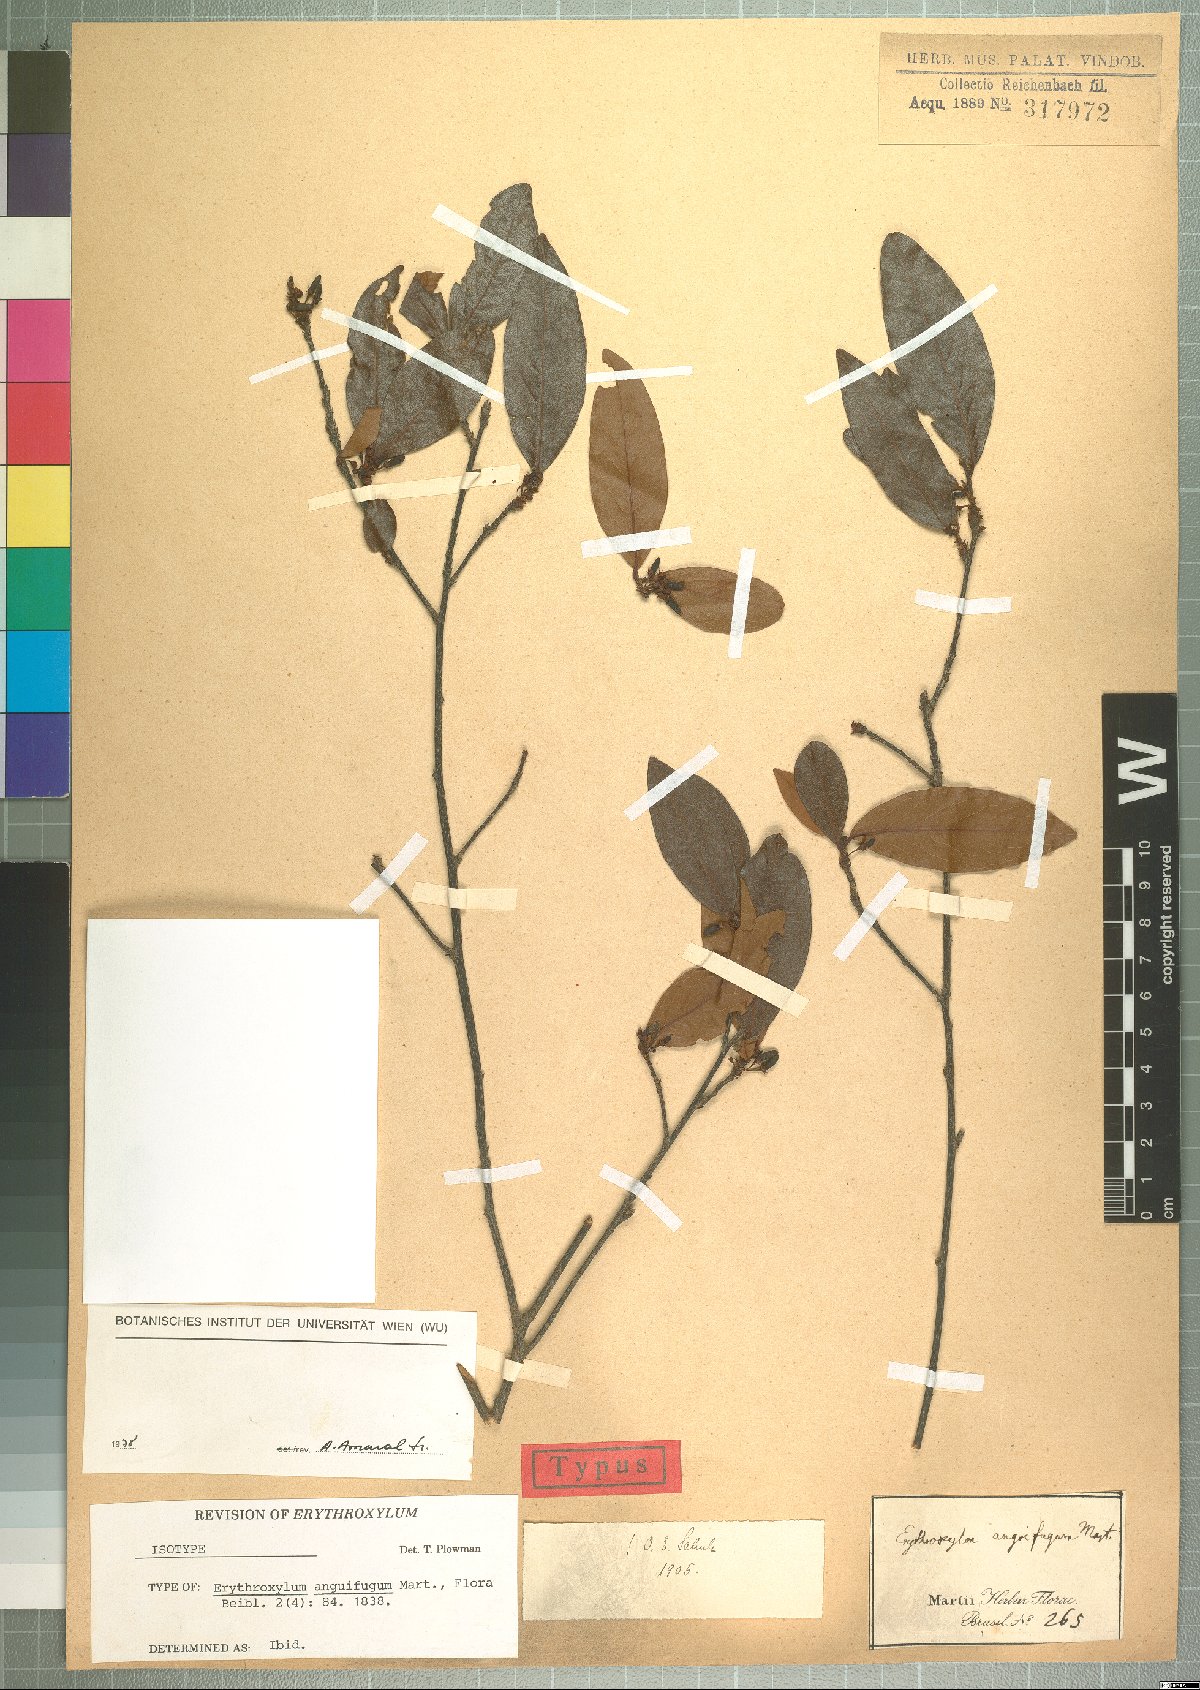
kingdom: Plantae
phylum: Tracheophyta
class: Magnoliopsida
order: Malpighiales
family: Erythroxylaceae
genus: Erythroxylum
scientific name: Erythroxylum anguifugum
